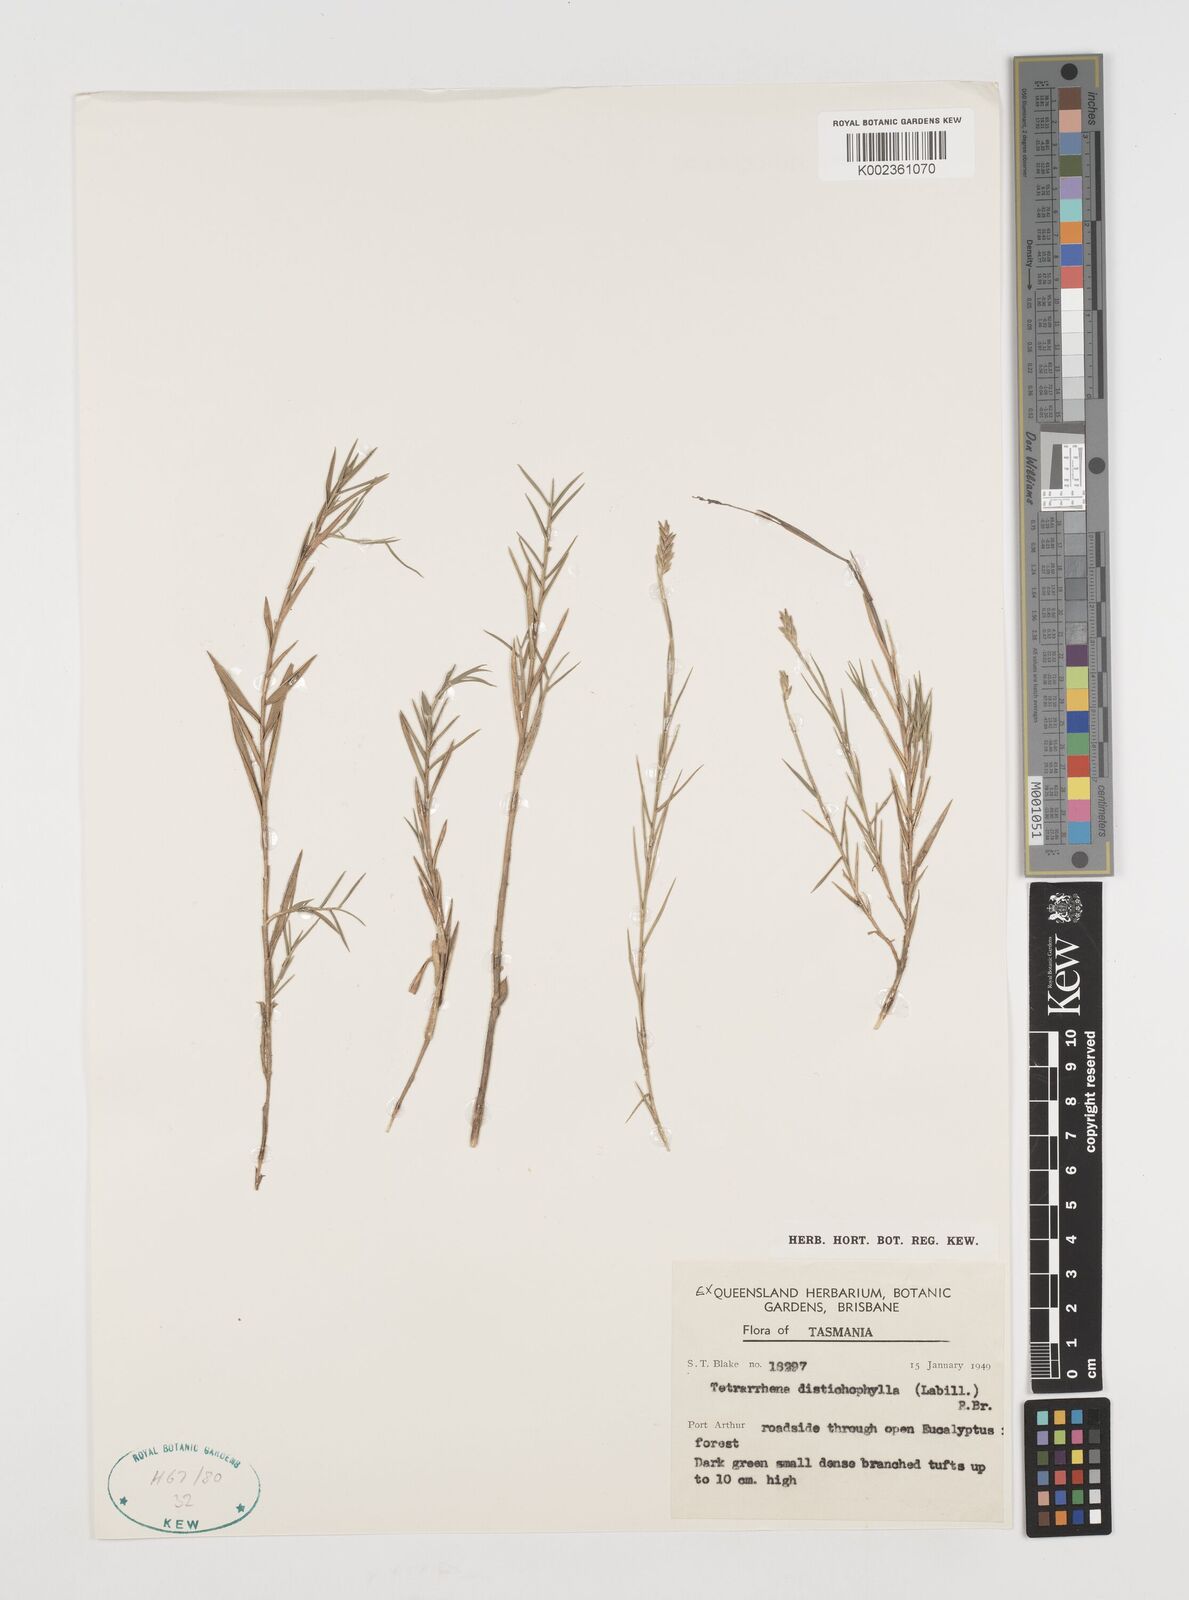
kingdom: Plantae
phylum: Tracheophyta
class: Liliopsida
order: Poales
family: Poaceae
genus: Tetrarrhena
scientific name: Tetrarrhena distichophylla
